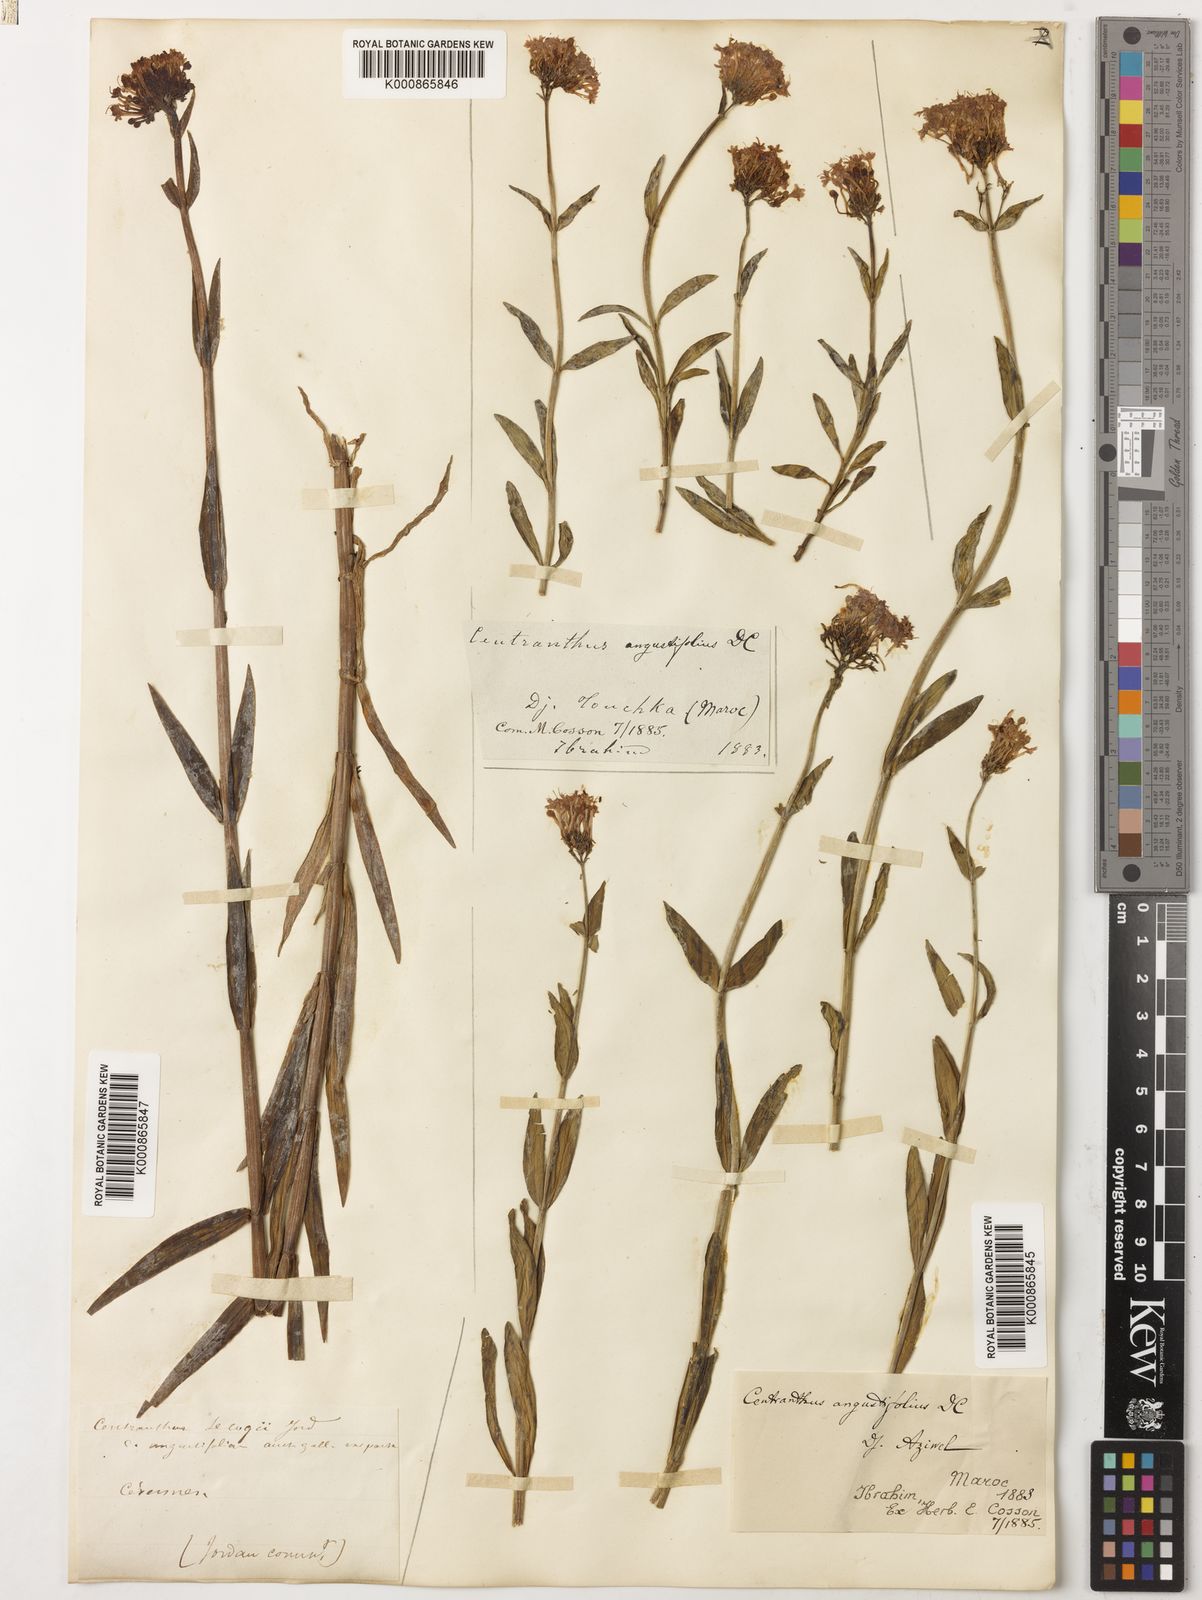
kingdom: Plantae
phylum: Tracheophyta
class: Magnoliopsida
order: Dipsacales
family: Caprifoliaceae
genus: Centranthus
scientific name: Centranthus angustifolius
